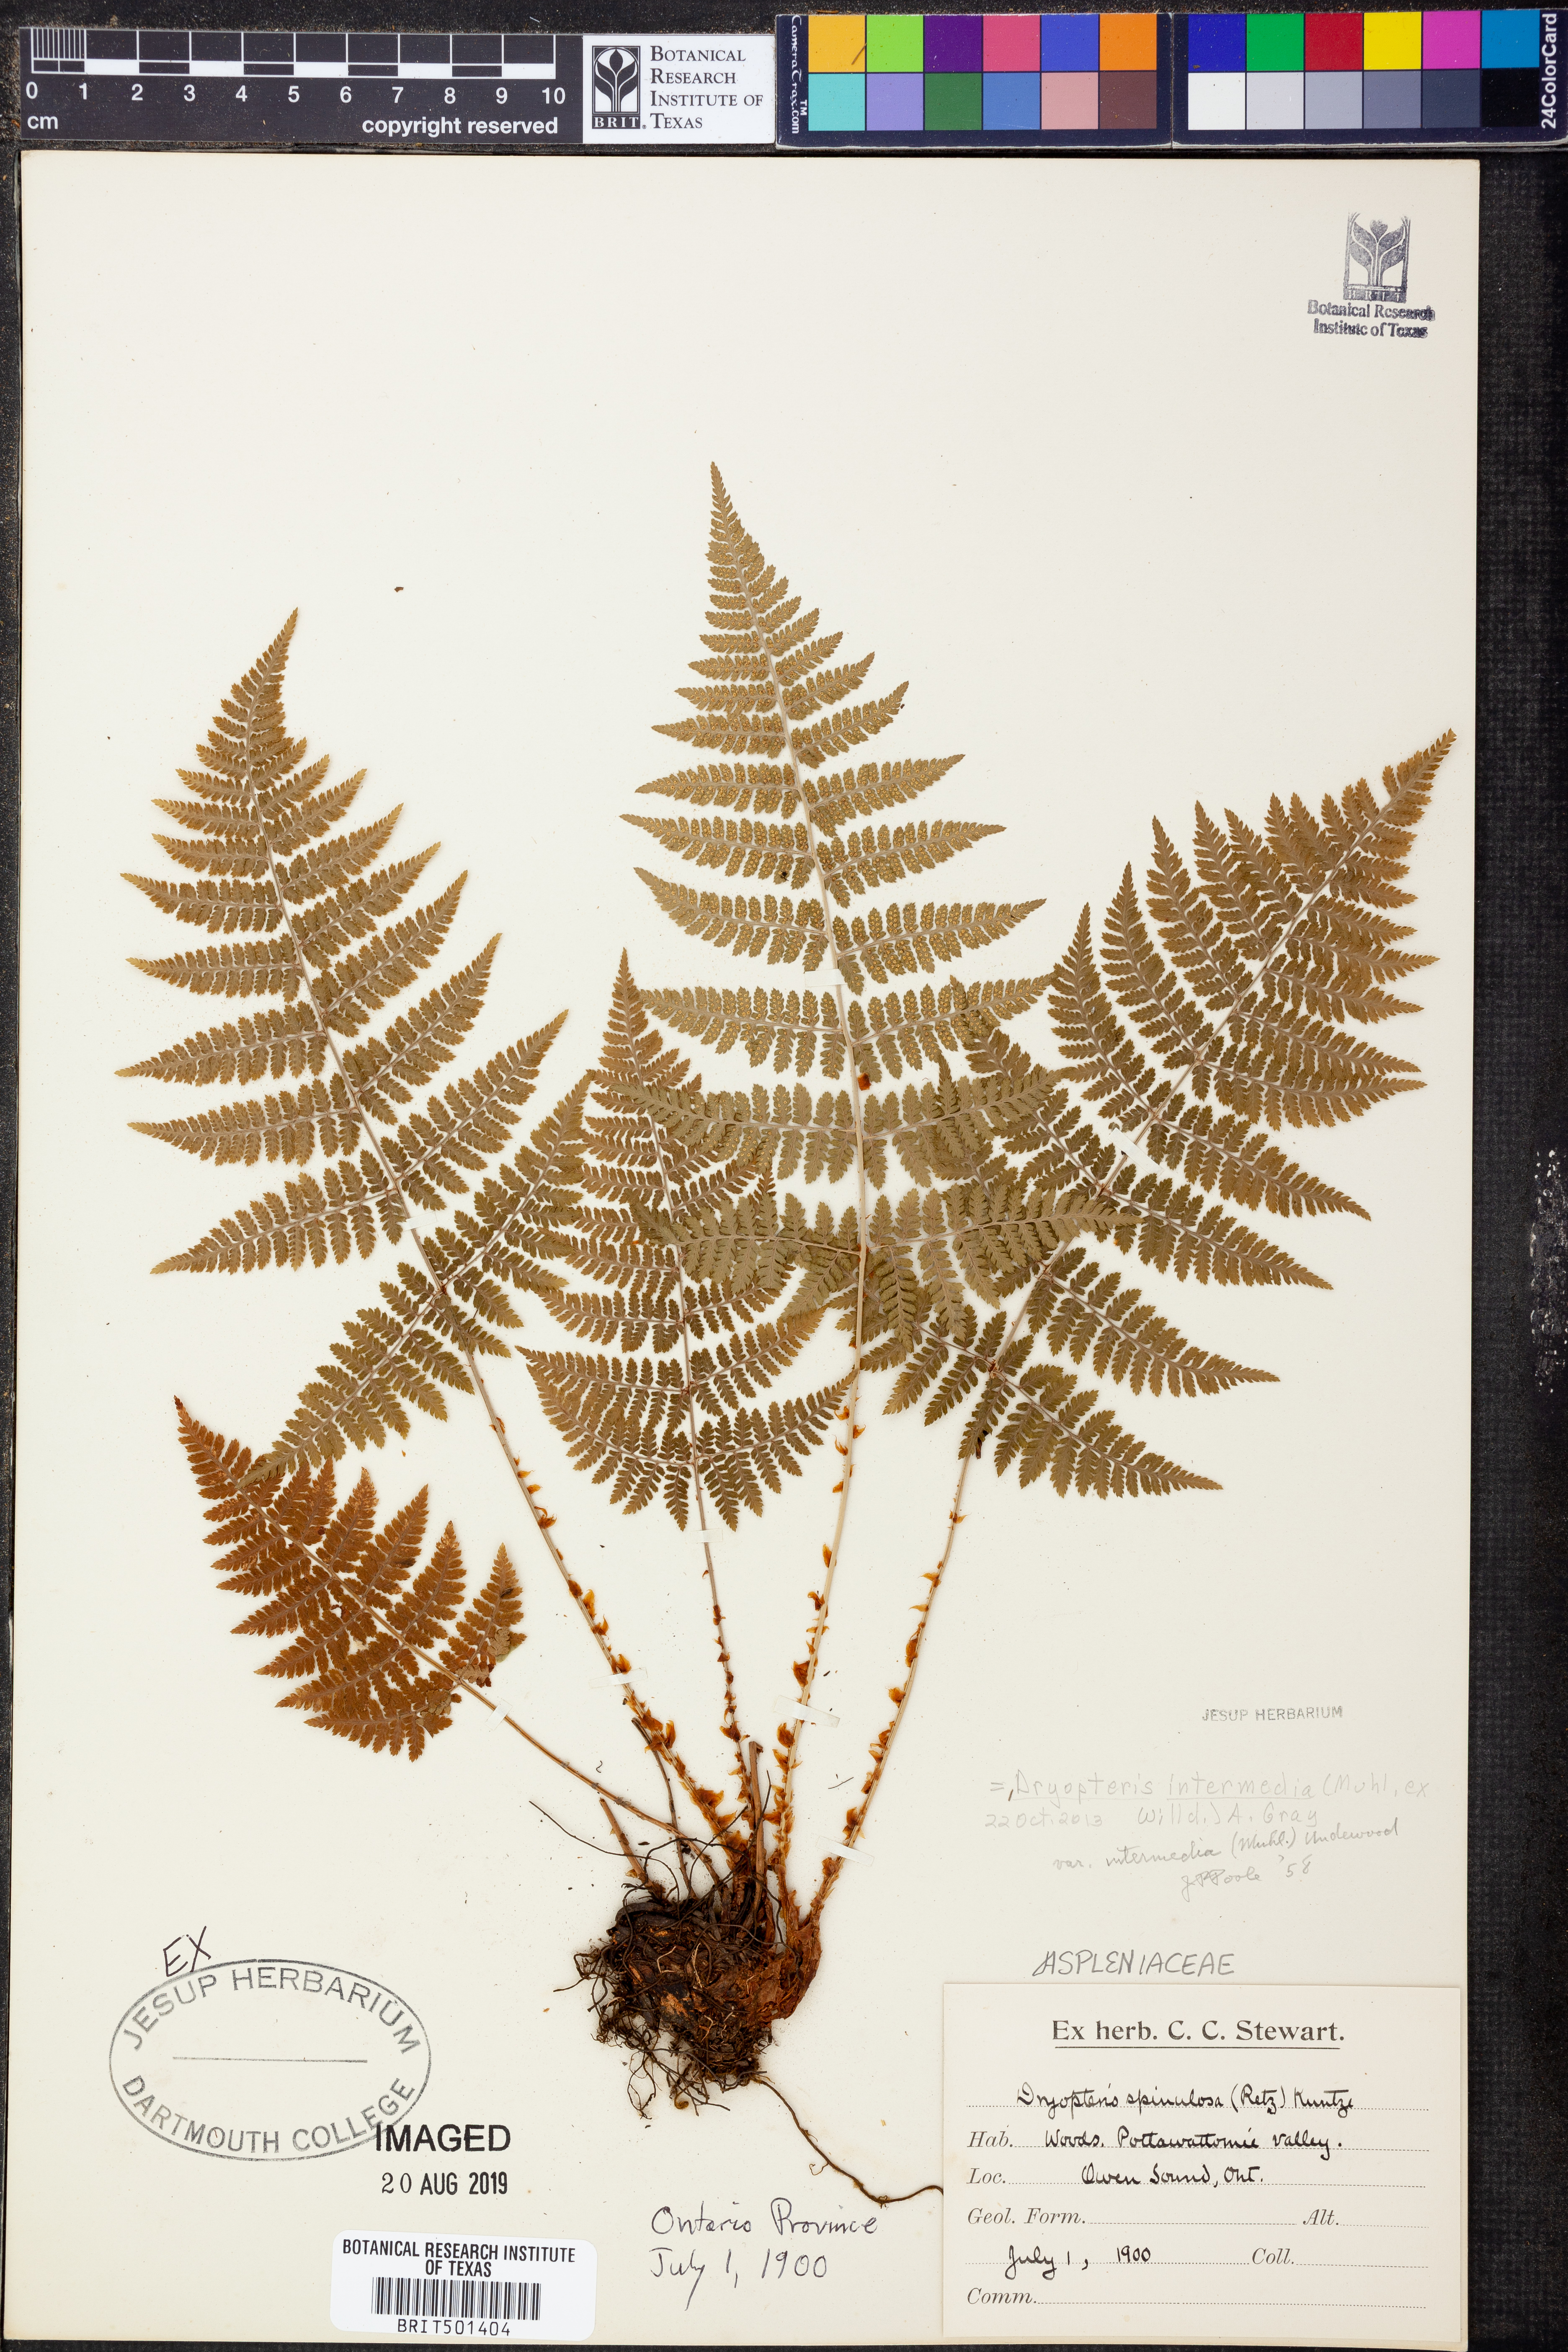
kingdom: Plantae
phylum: Tracheophyta
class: Polypodiopsida
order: Polypodiales
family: Dryopteridaceae
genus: Dryopteris
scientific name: Dryopteris intermedia
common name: Evergreen wood fern
